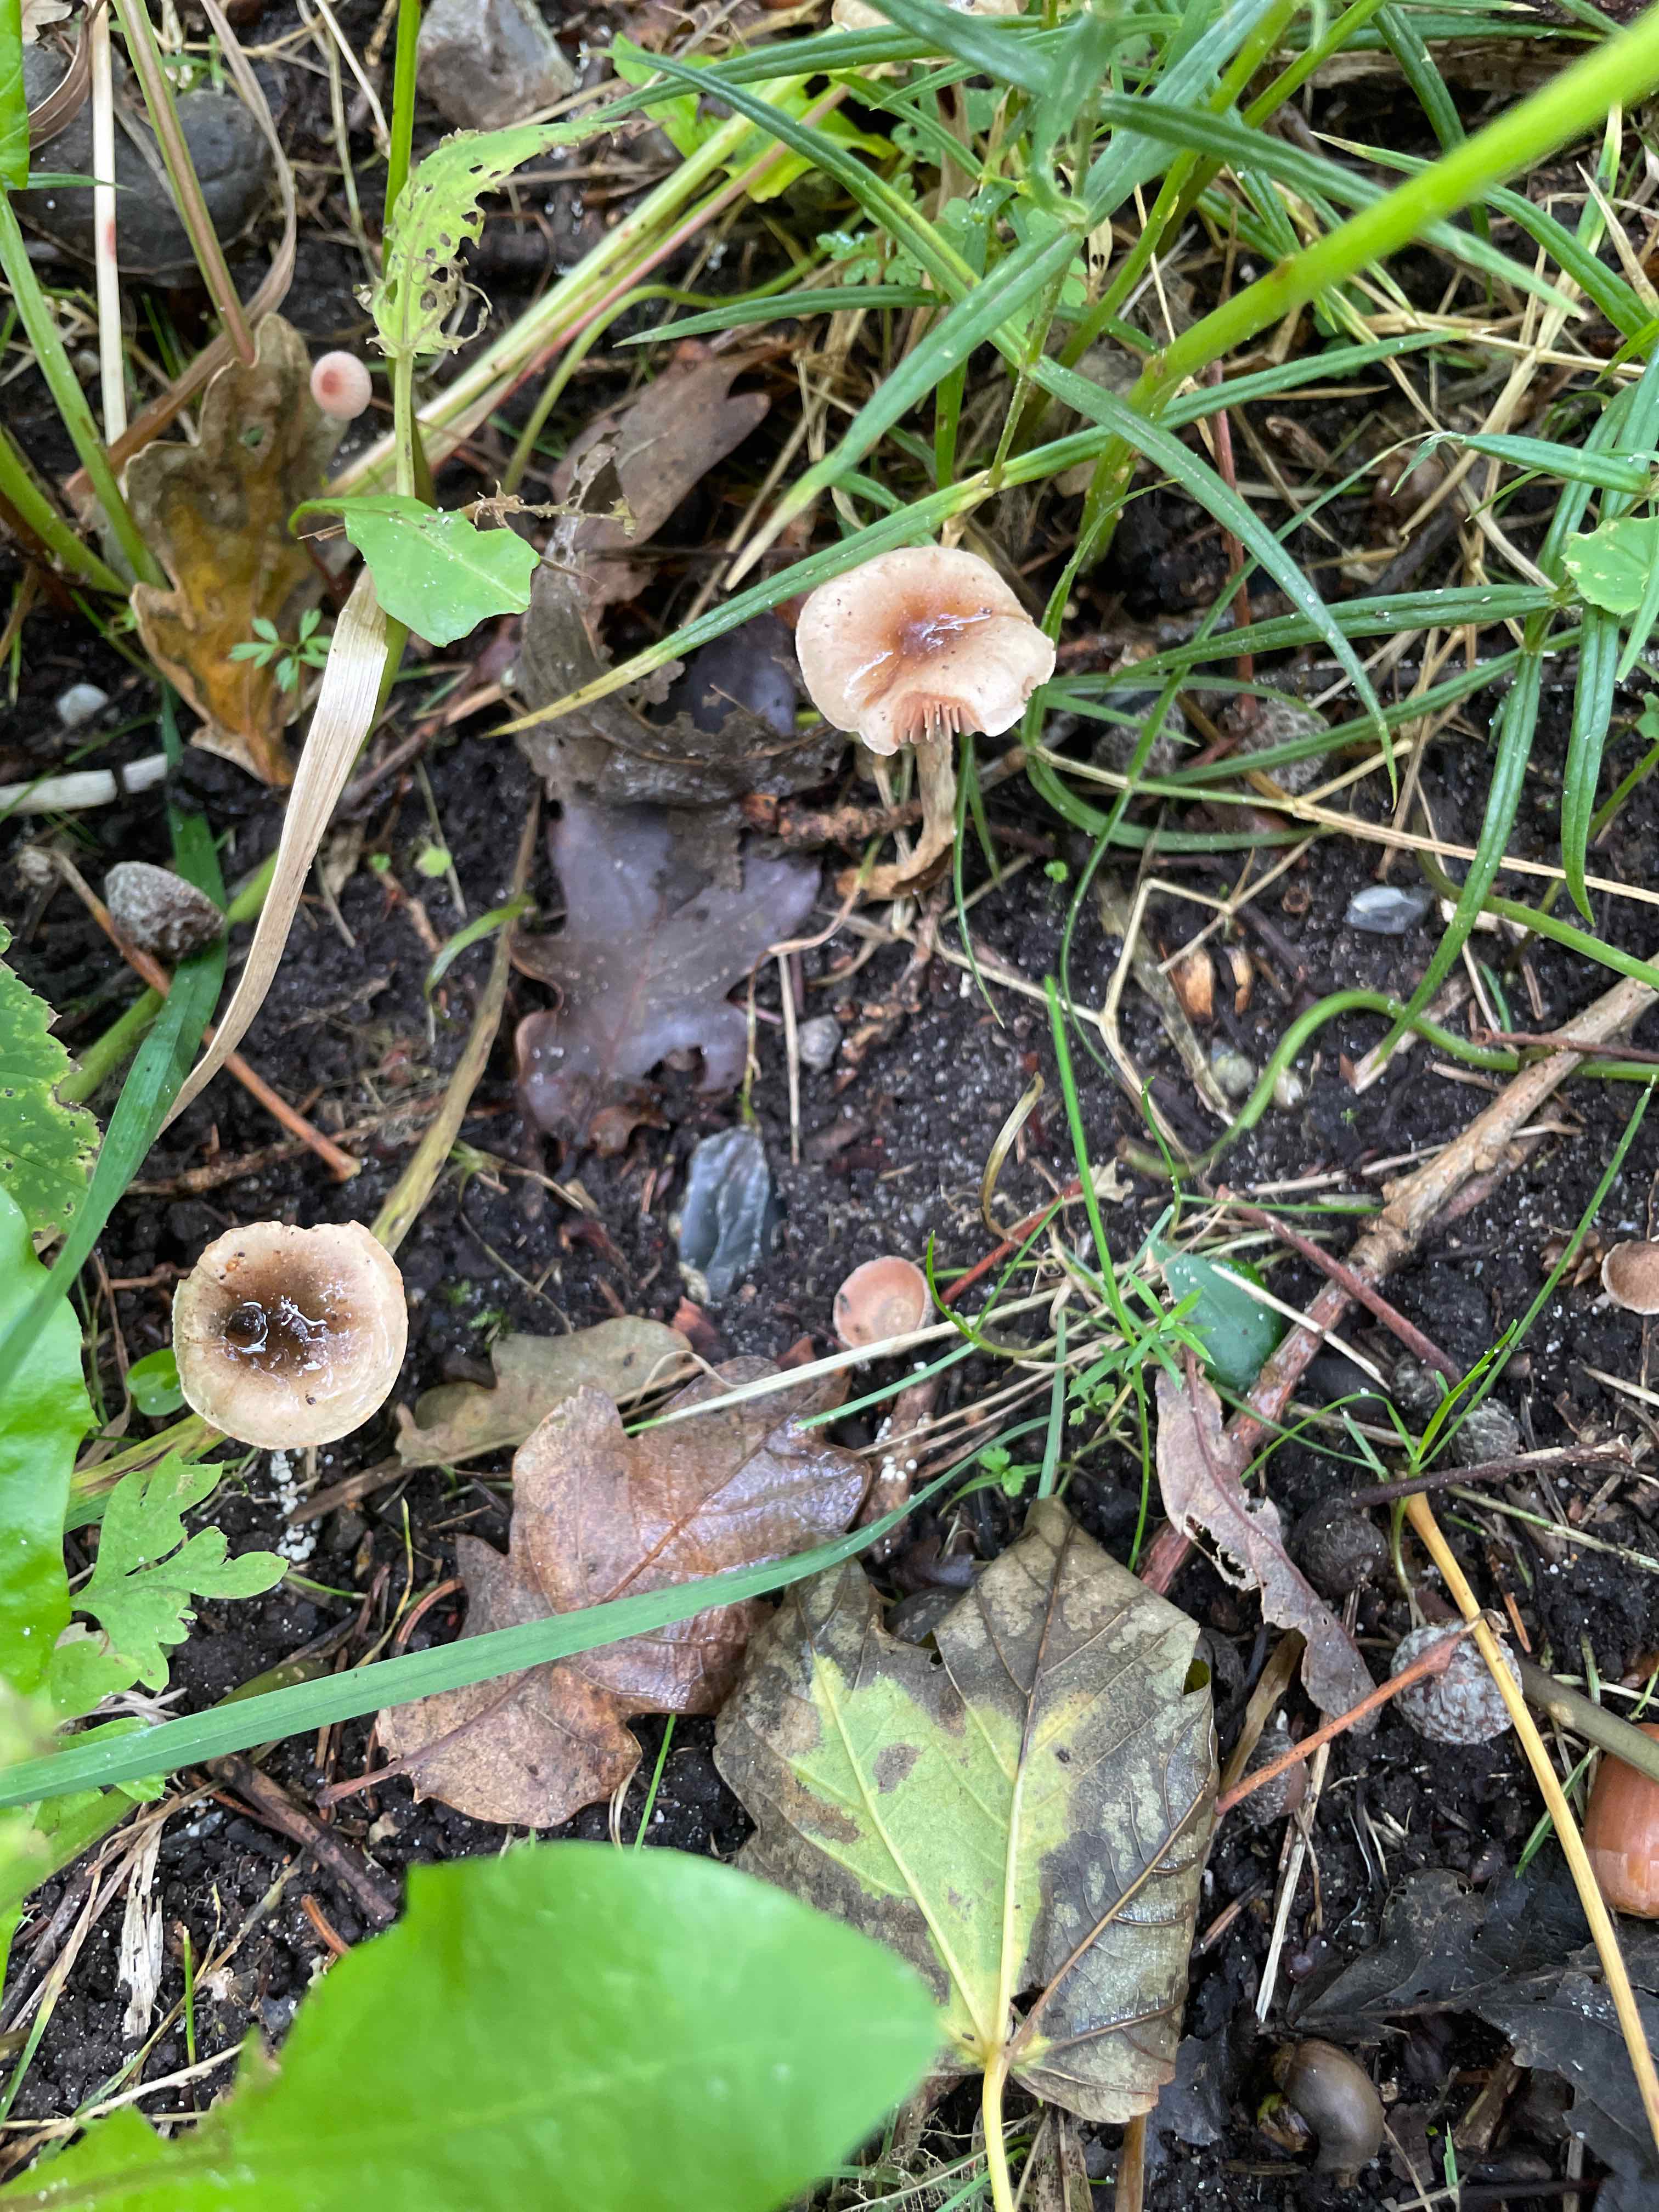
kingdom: Fungi
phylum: Basidiomycota
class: Agaricomycetes
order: Agaricales
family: Hymenogastraceae
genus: Hebeloma
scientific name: Hebeloma
